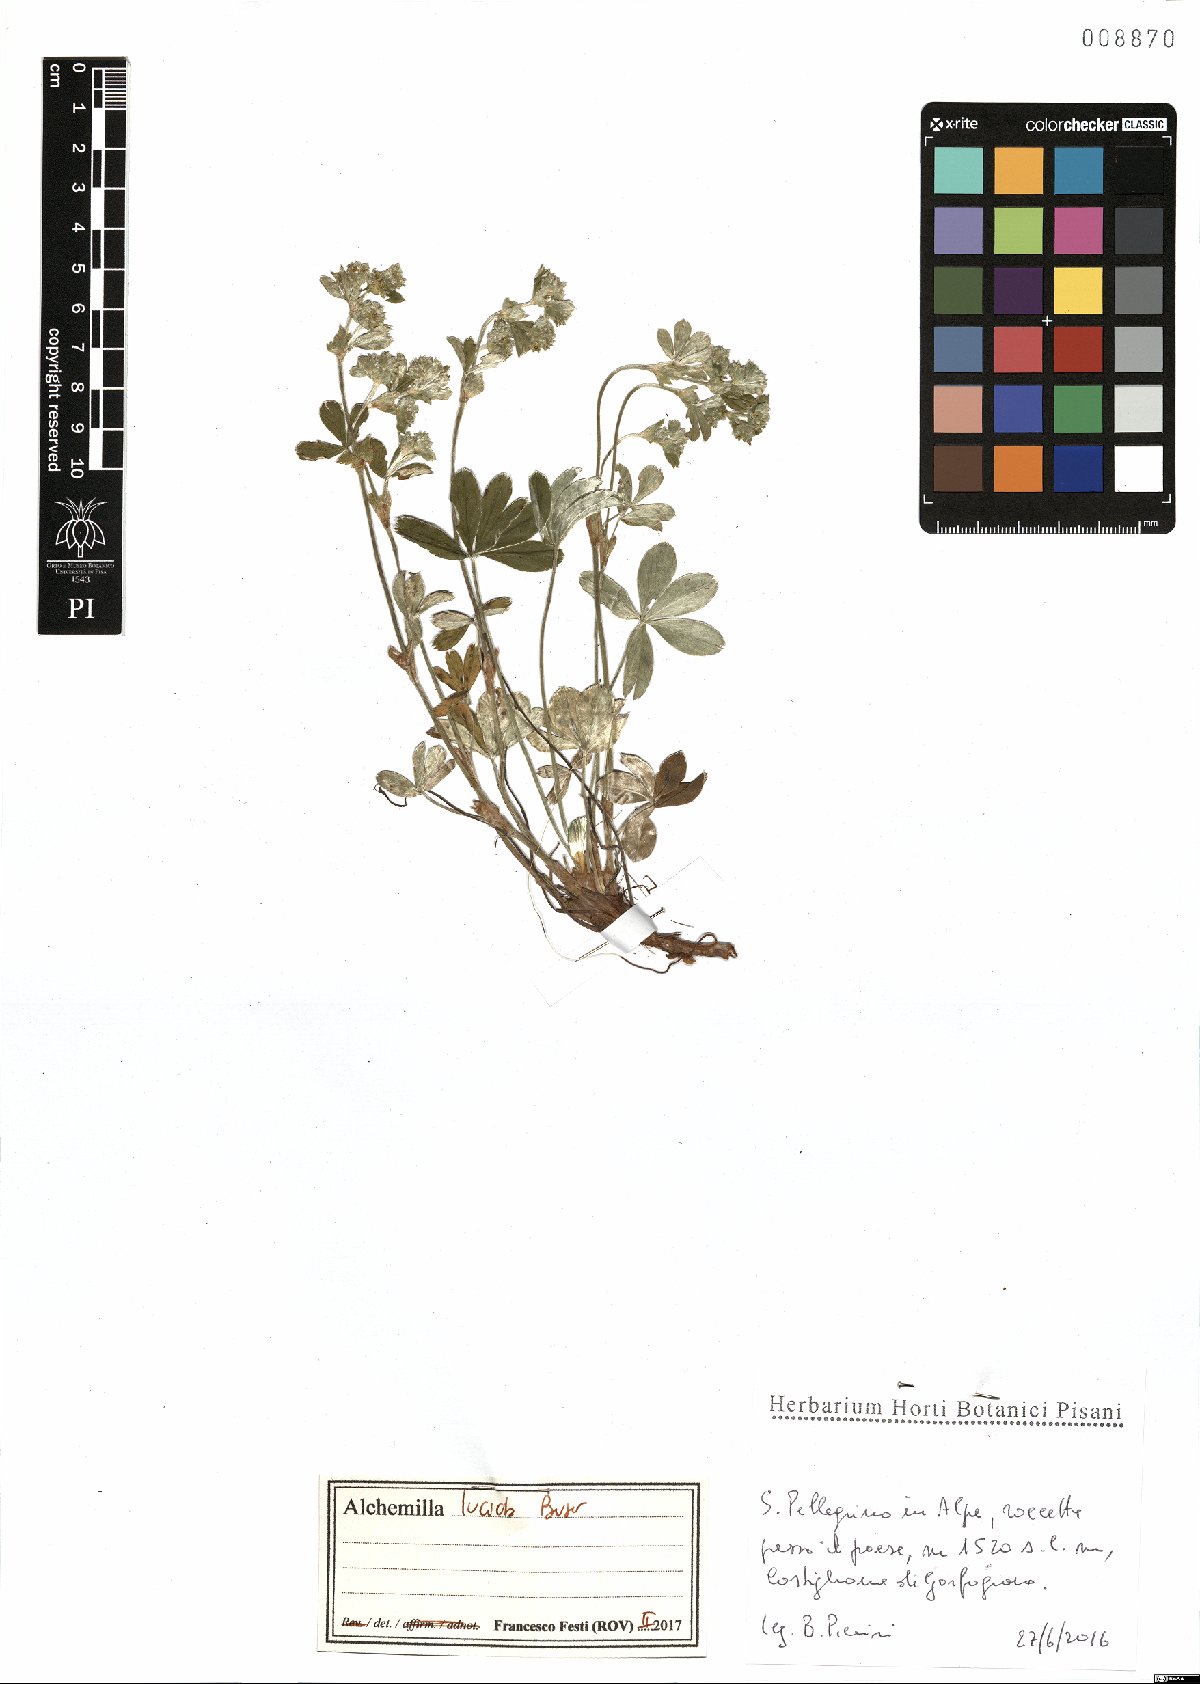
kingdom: Plantae
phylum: Tracheophyta
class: Magnoliopsida
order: Rosales
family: Rosaceae
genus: Alchemilla
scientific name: Alchemilla lucida
